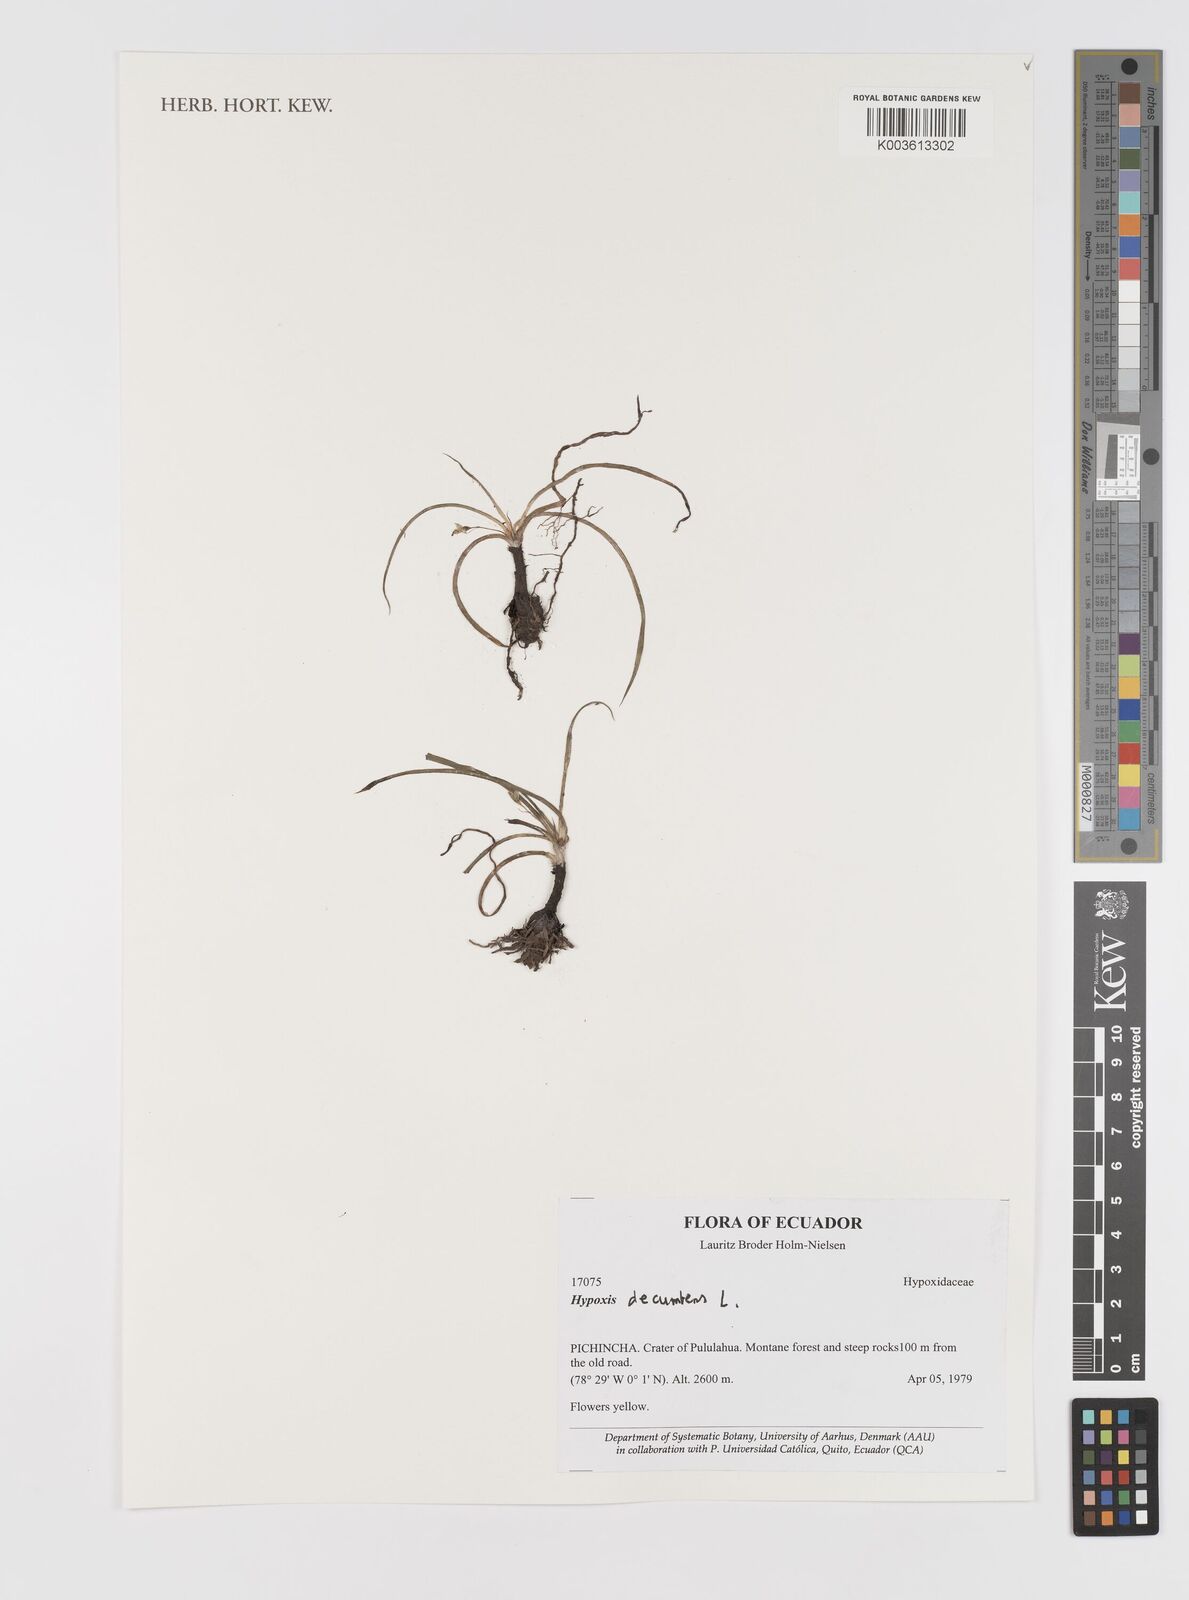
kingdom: Plantae
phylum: Tracheophyta
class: Liliopsida
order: Asparagales
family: Hypoxidaceae
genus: Hypoxis
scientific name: Hypoxis decumbens
